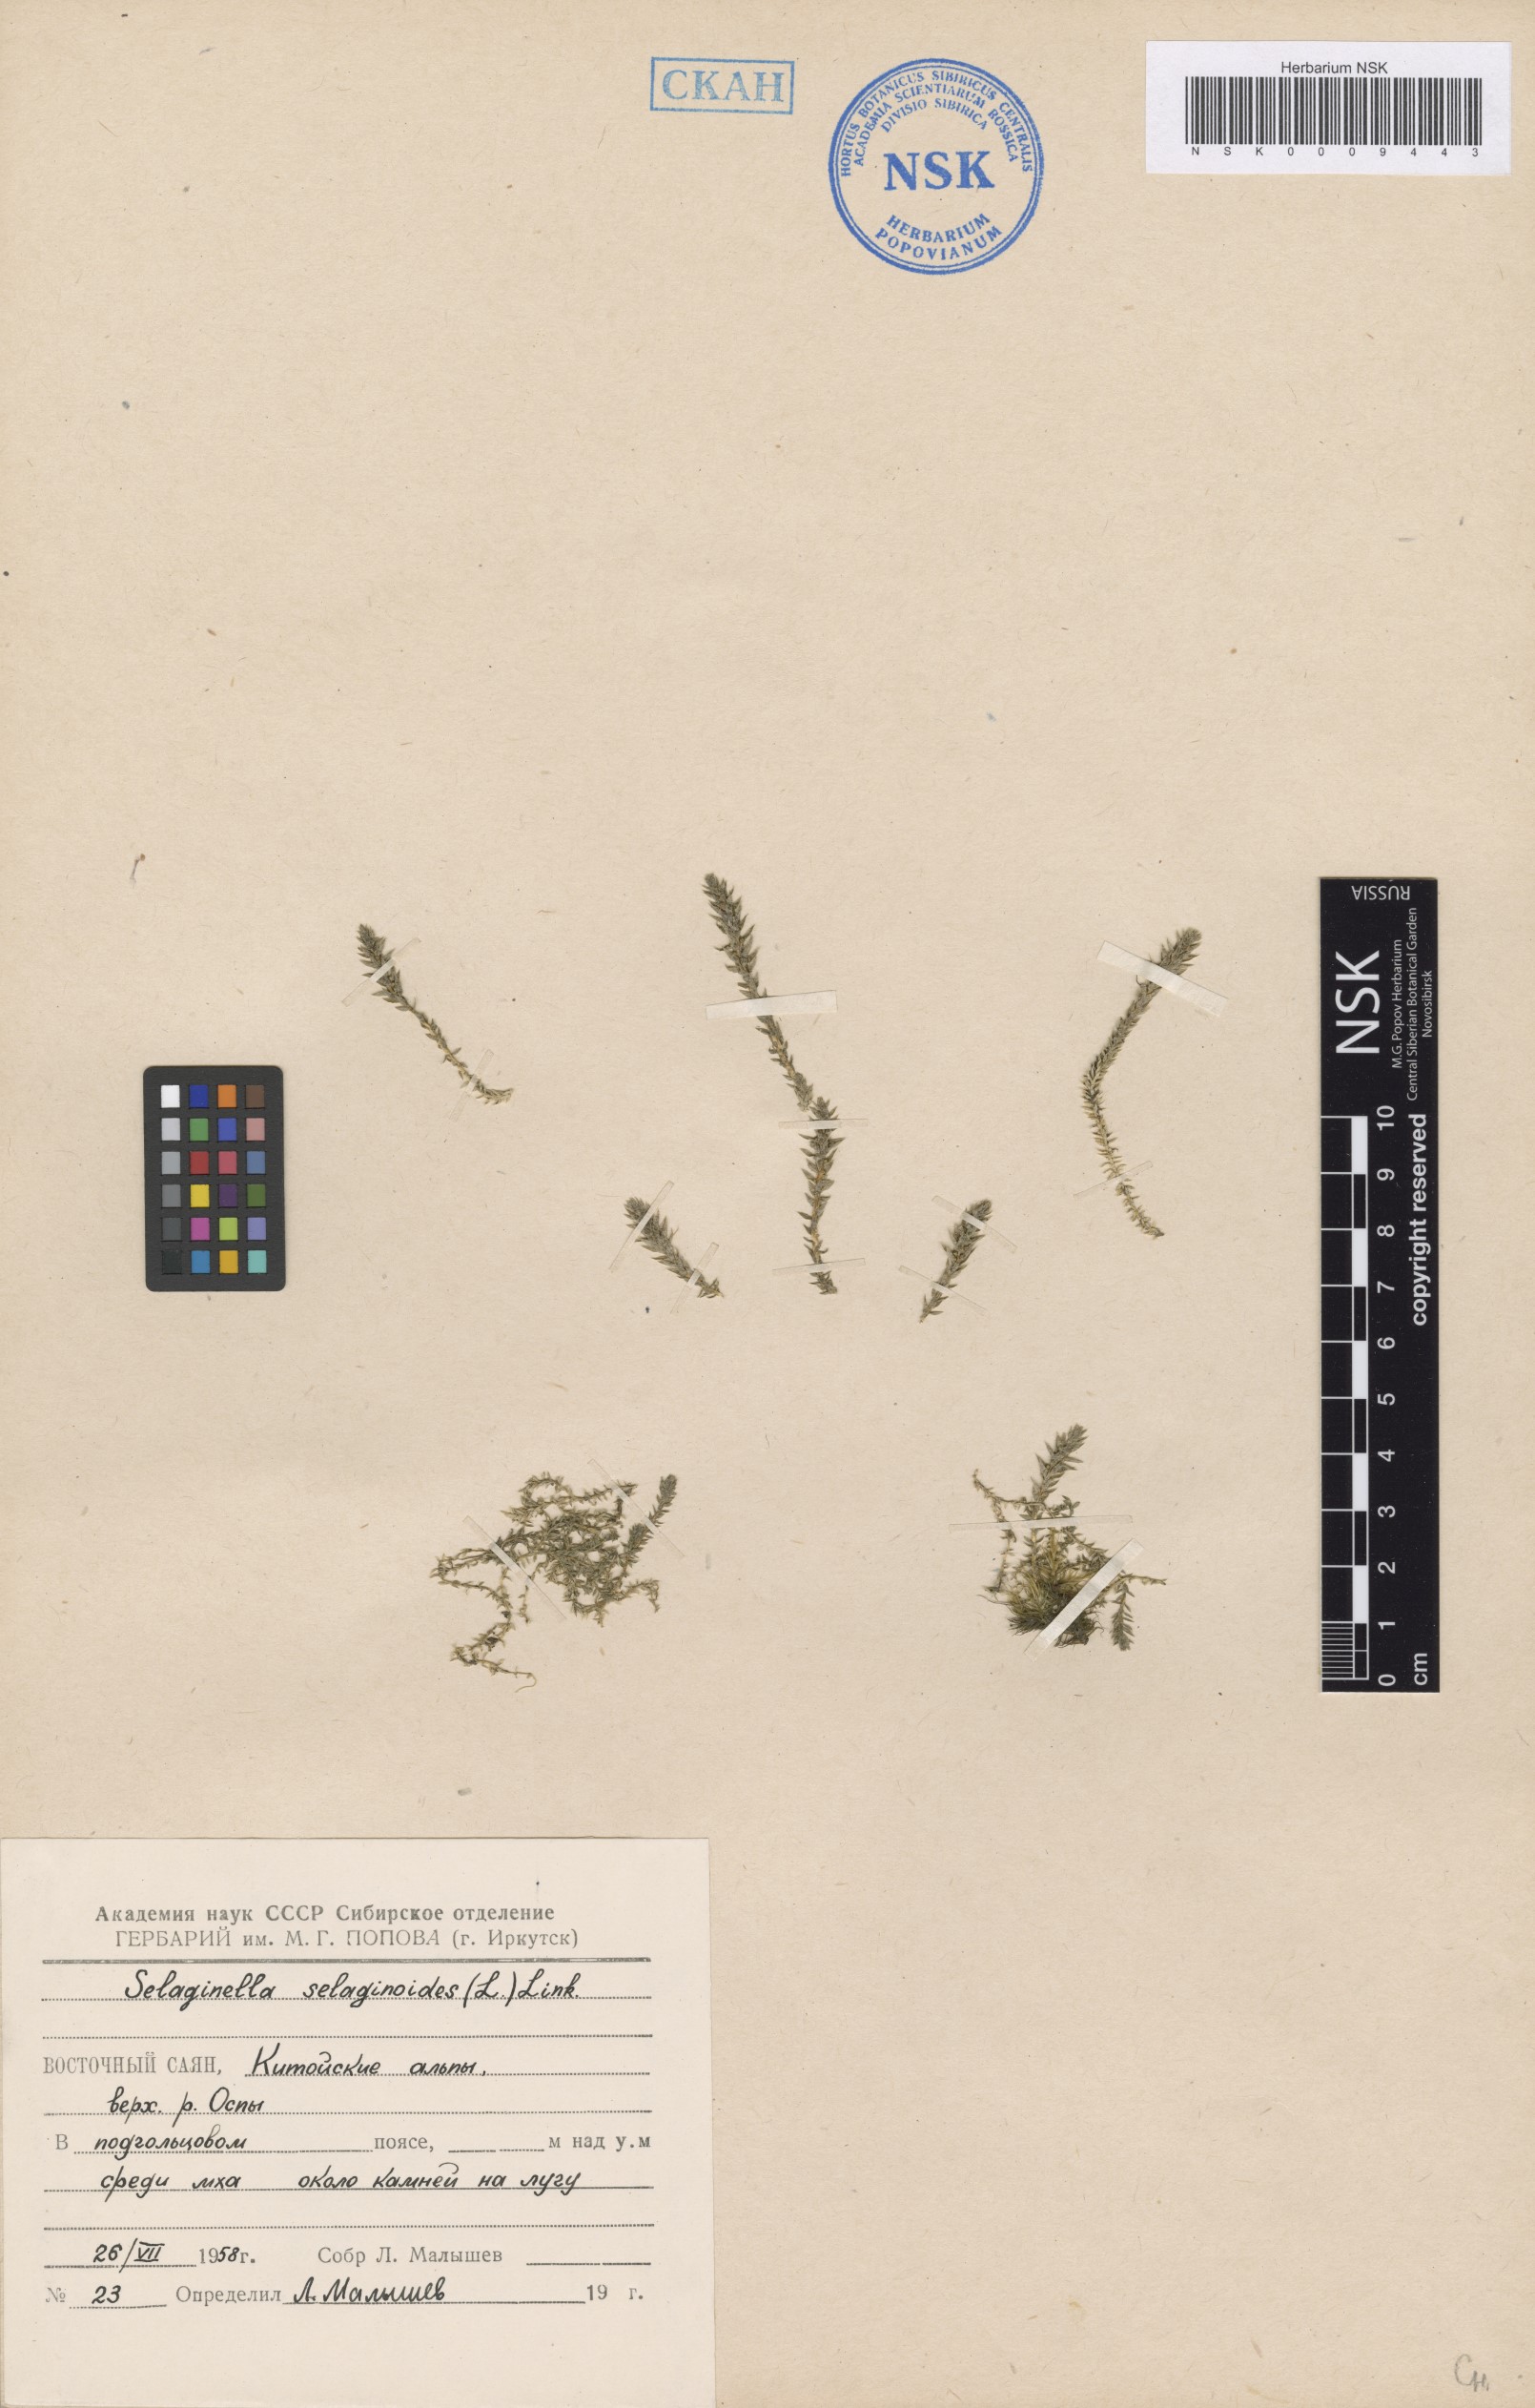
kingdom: Plantae
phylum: Tracheophyta
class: Lycopodiopsida
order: Selaginellales
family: Selaginellaceae
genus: Selaginella
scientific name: Selaginella selaginoides
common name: Prickly mountain-moss
